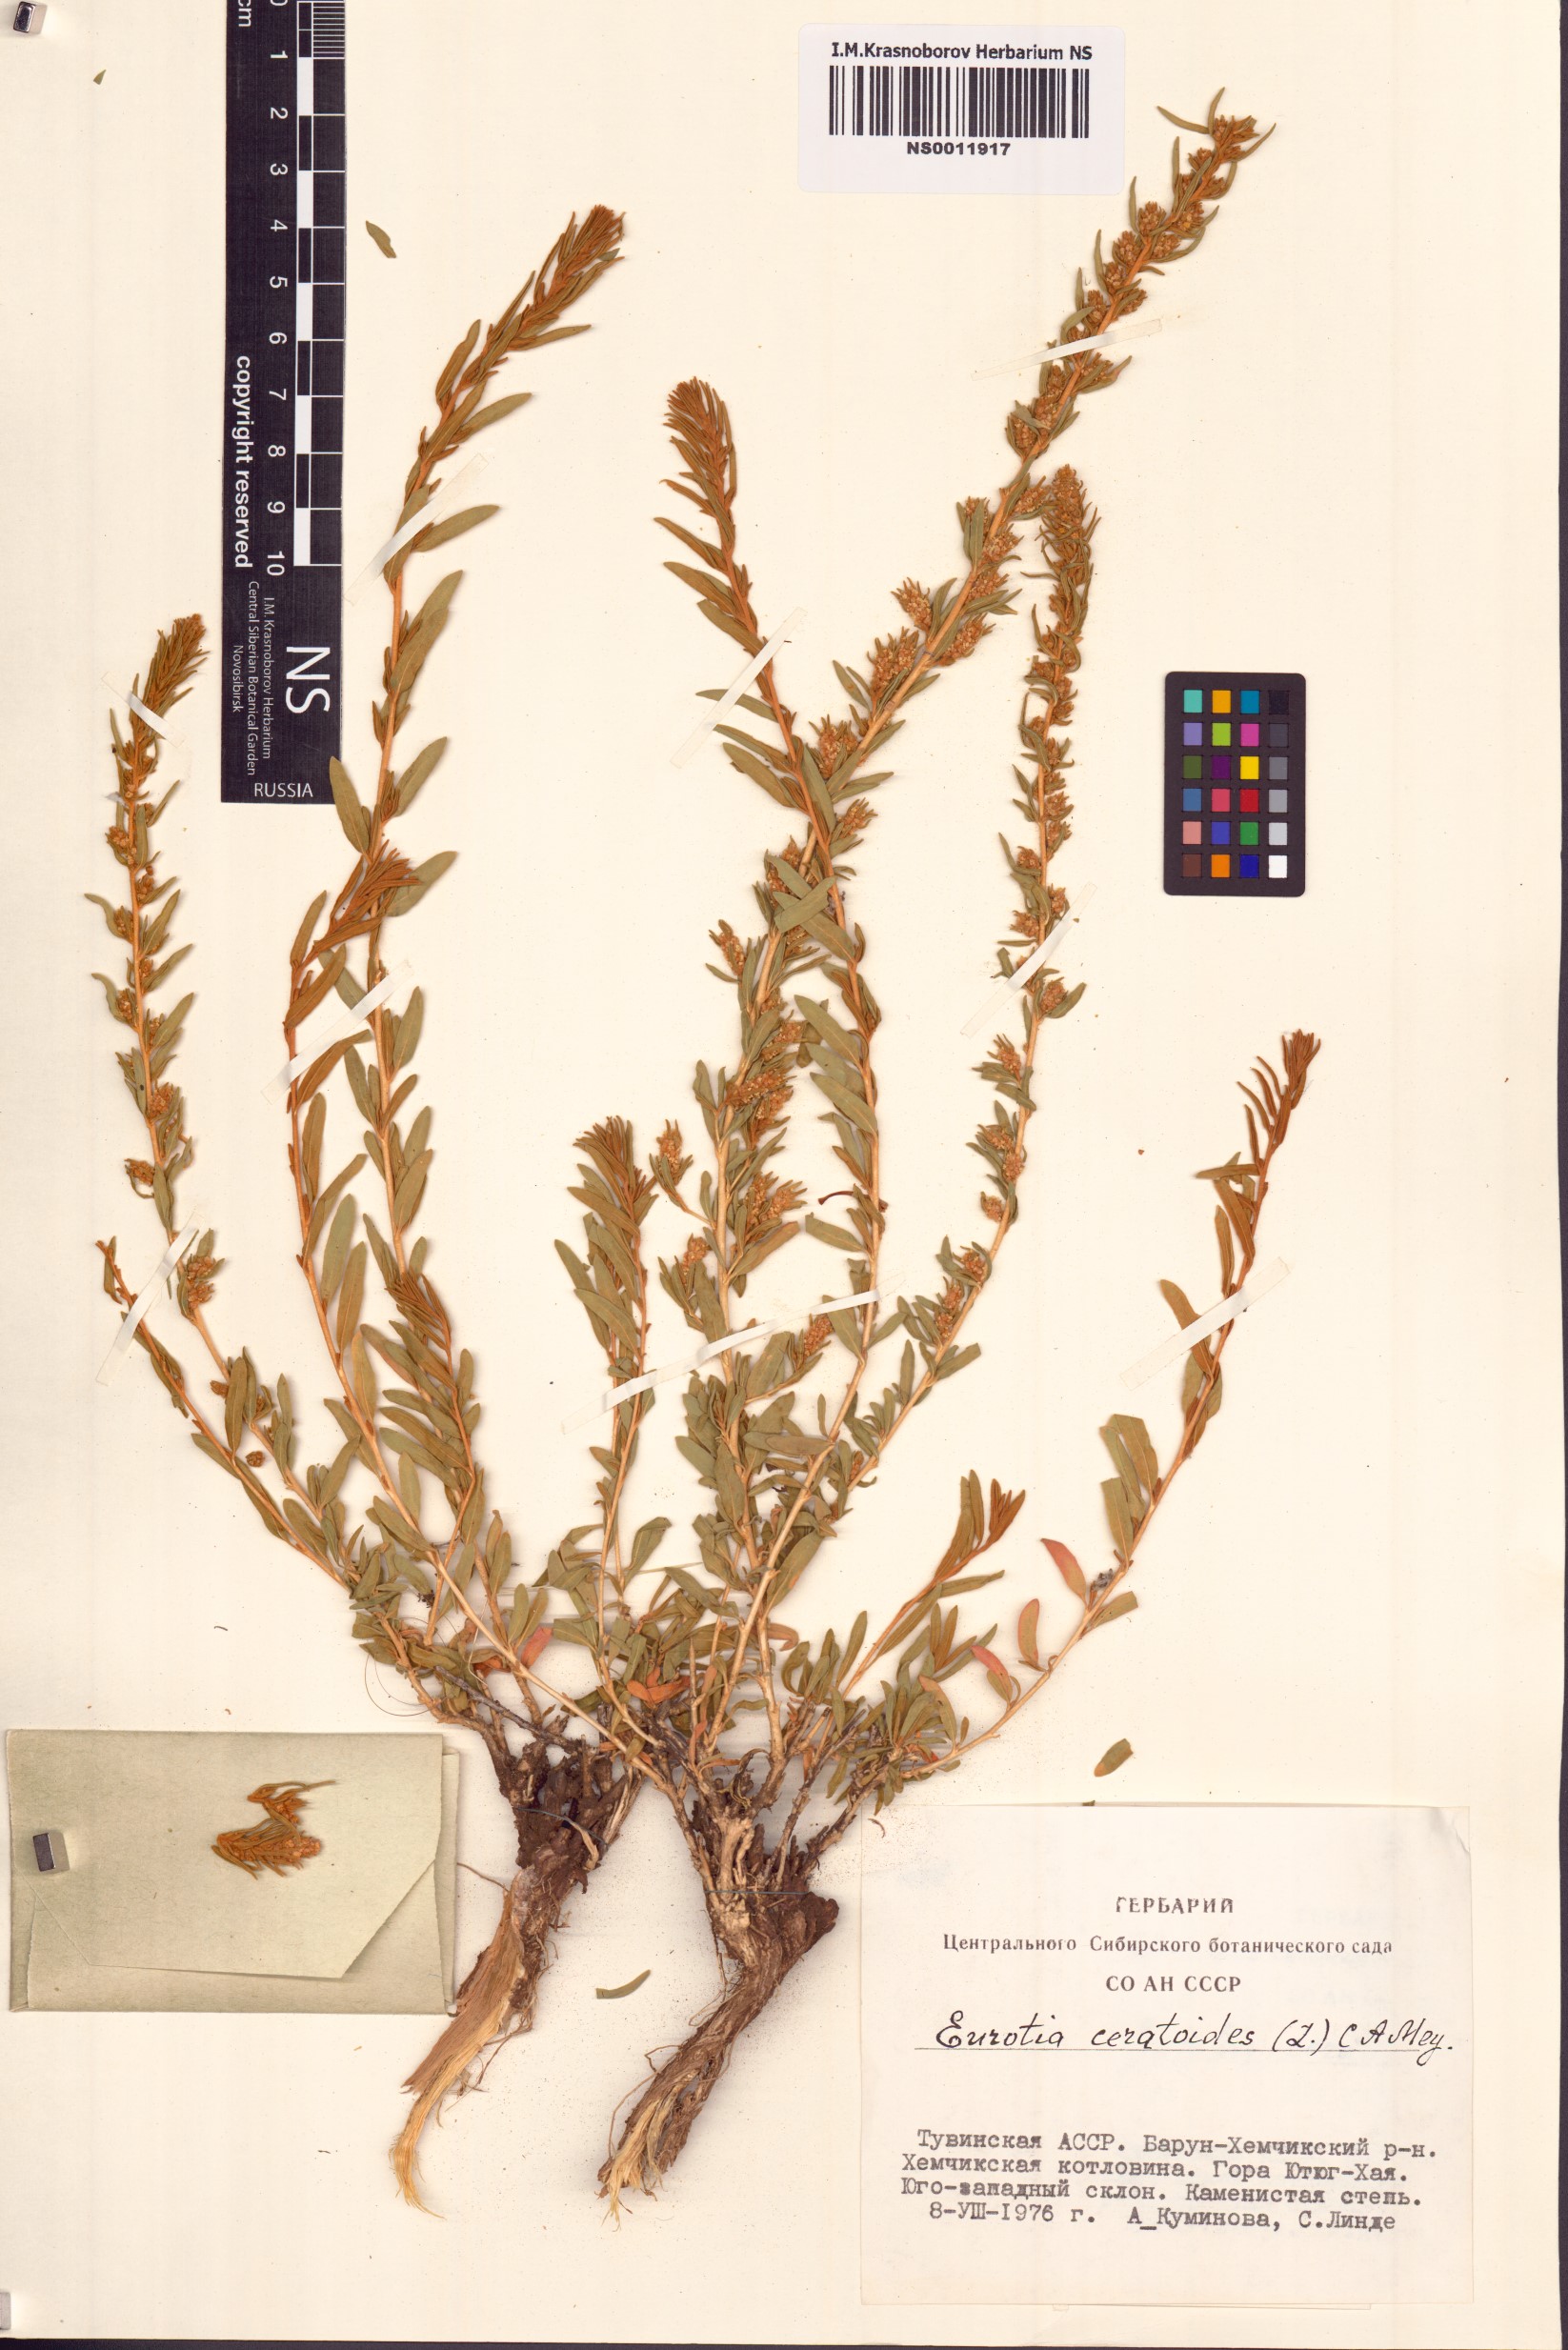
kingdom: Plantae
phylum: Tracheophyta
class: Magnoliopsida
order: Caryophyllales
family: Amaranthaceae
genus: Krascheninnikovia
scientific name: Krascheninnikovia ceratoides
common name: Pamirian winterfat
